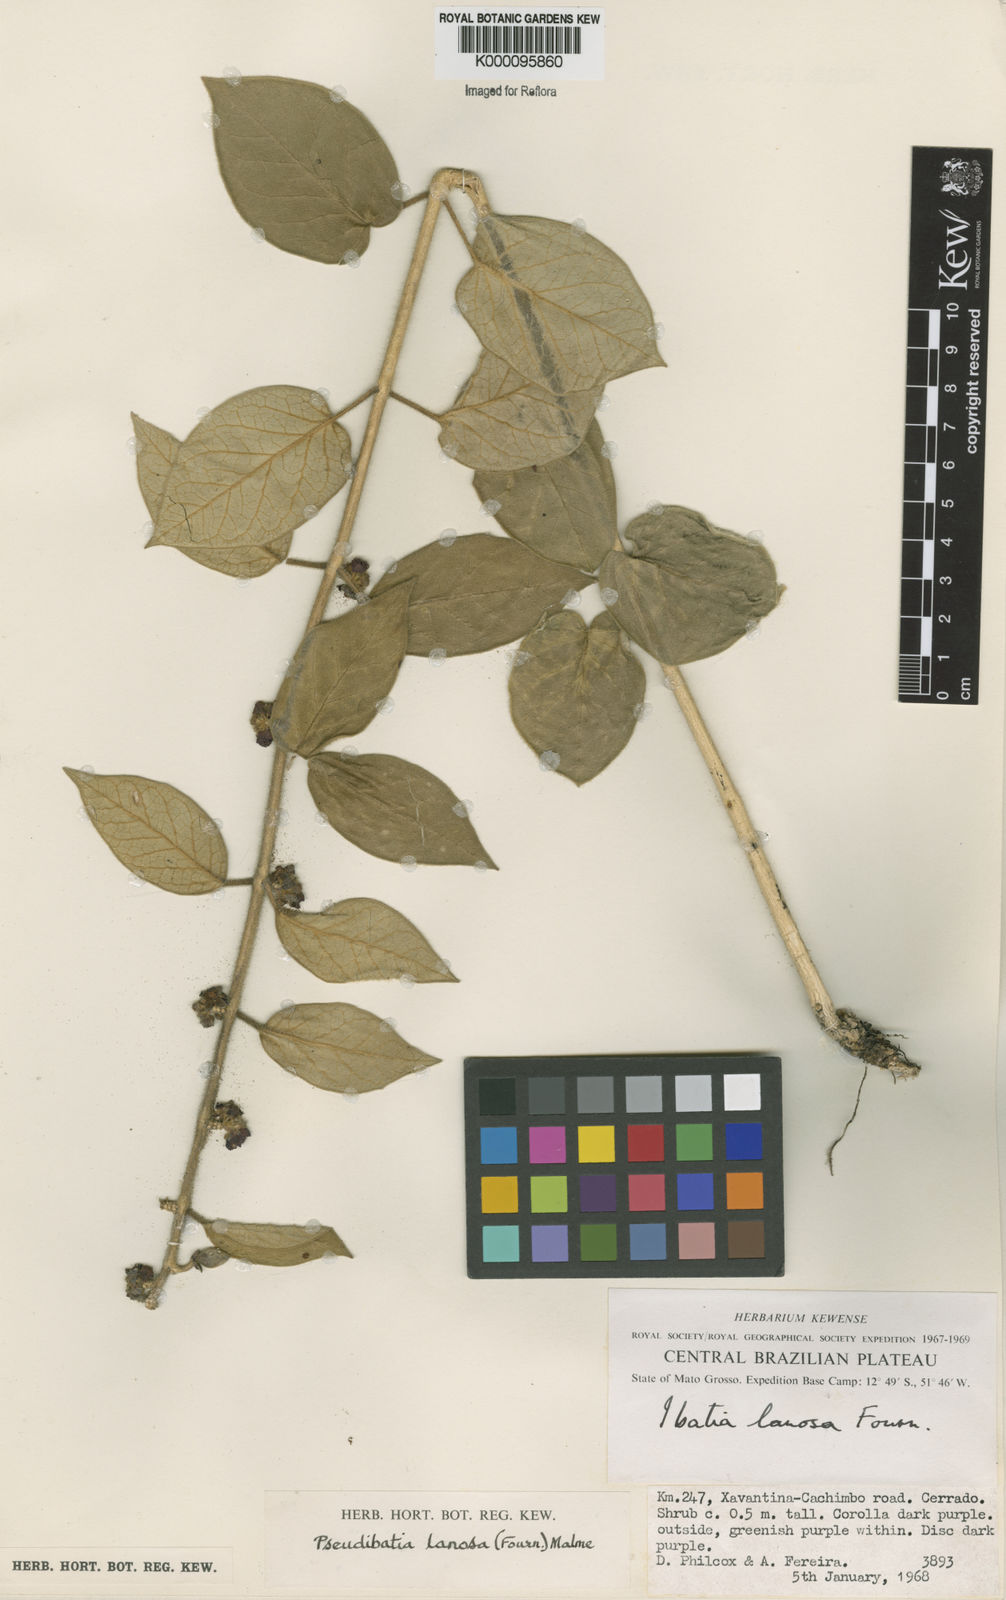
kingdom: Plantae
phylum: Tracheophyta
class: Magnoliopsida
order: Gentianales
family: Apocynaceae
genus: Ibatia
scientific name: Ibatia lanosa
